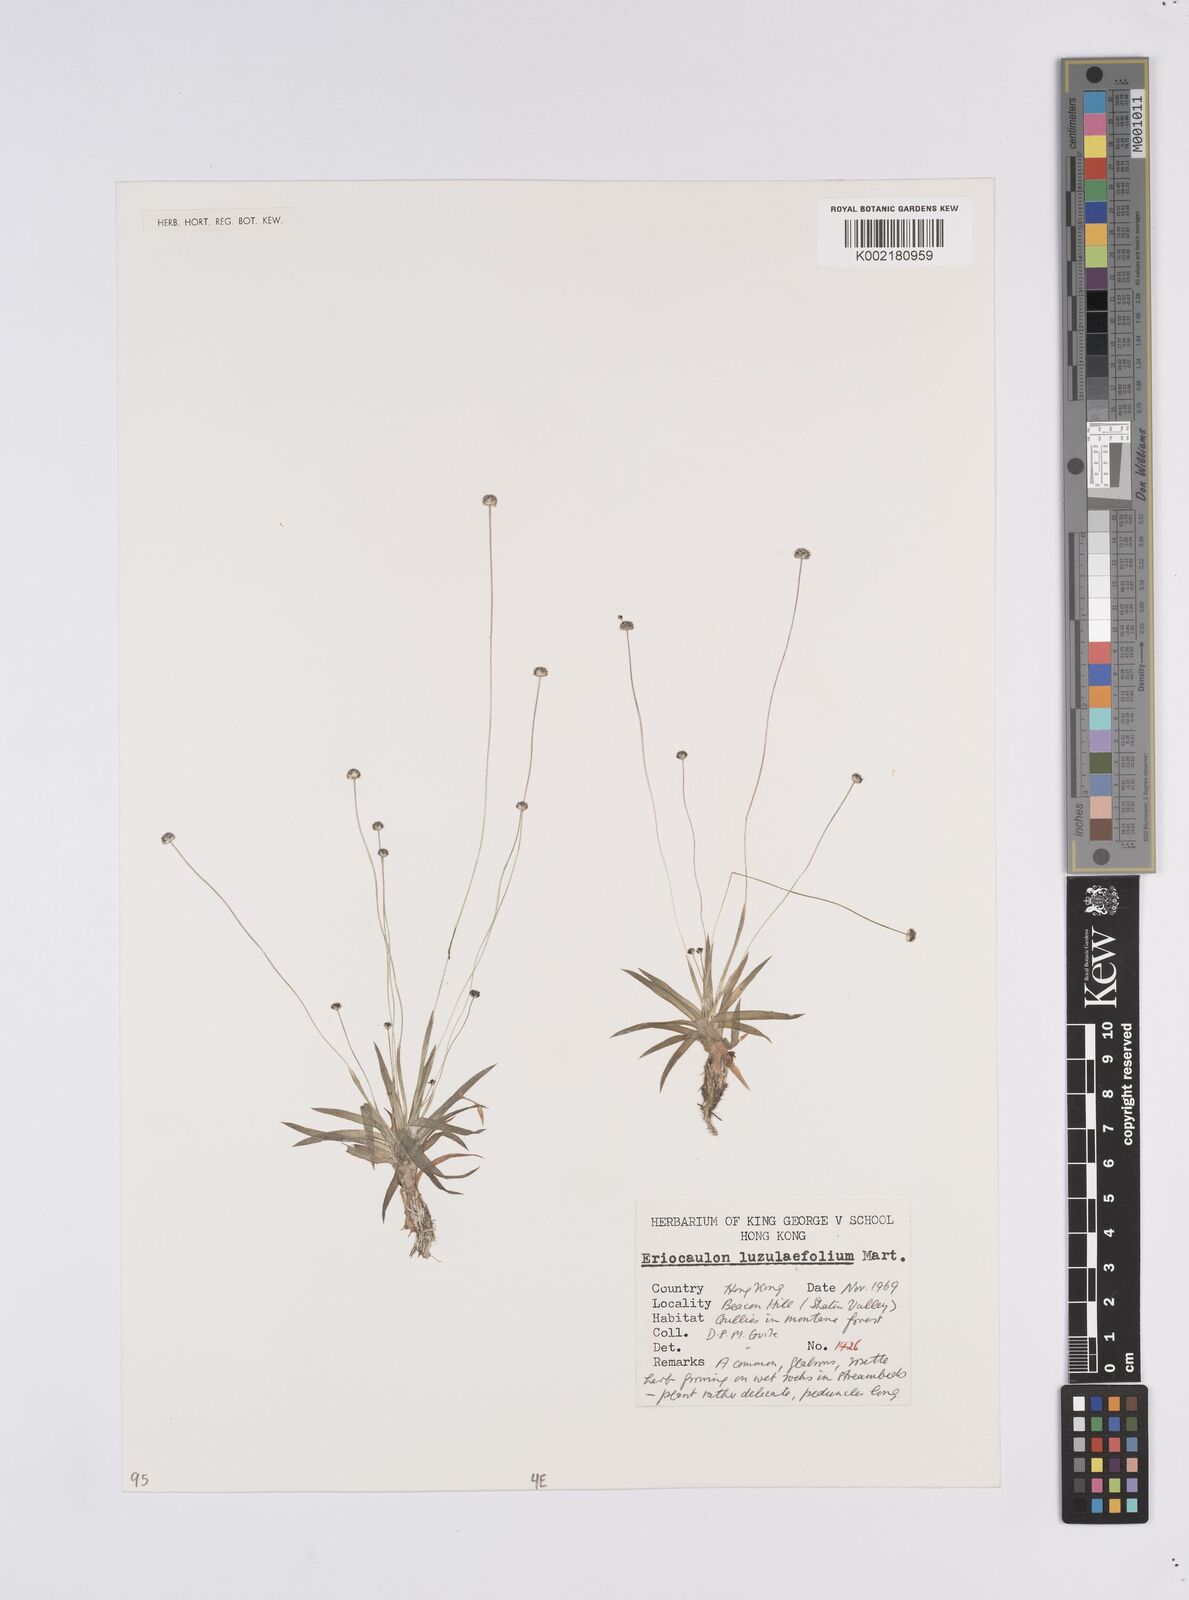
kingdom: Plantae
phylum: Tracheophyta
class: Liliopsida
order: Poales
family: Eriocaulaceae
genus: Eriocaulon
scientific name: Eriocaulon australe
